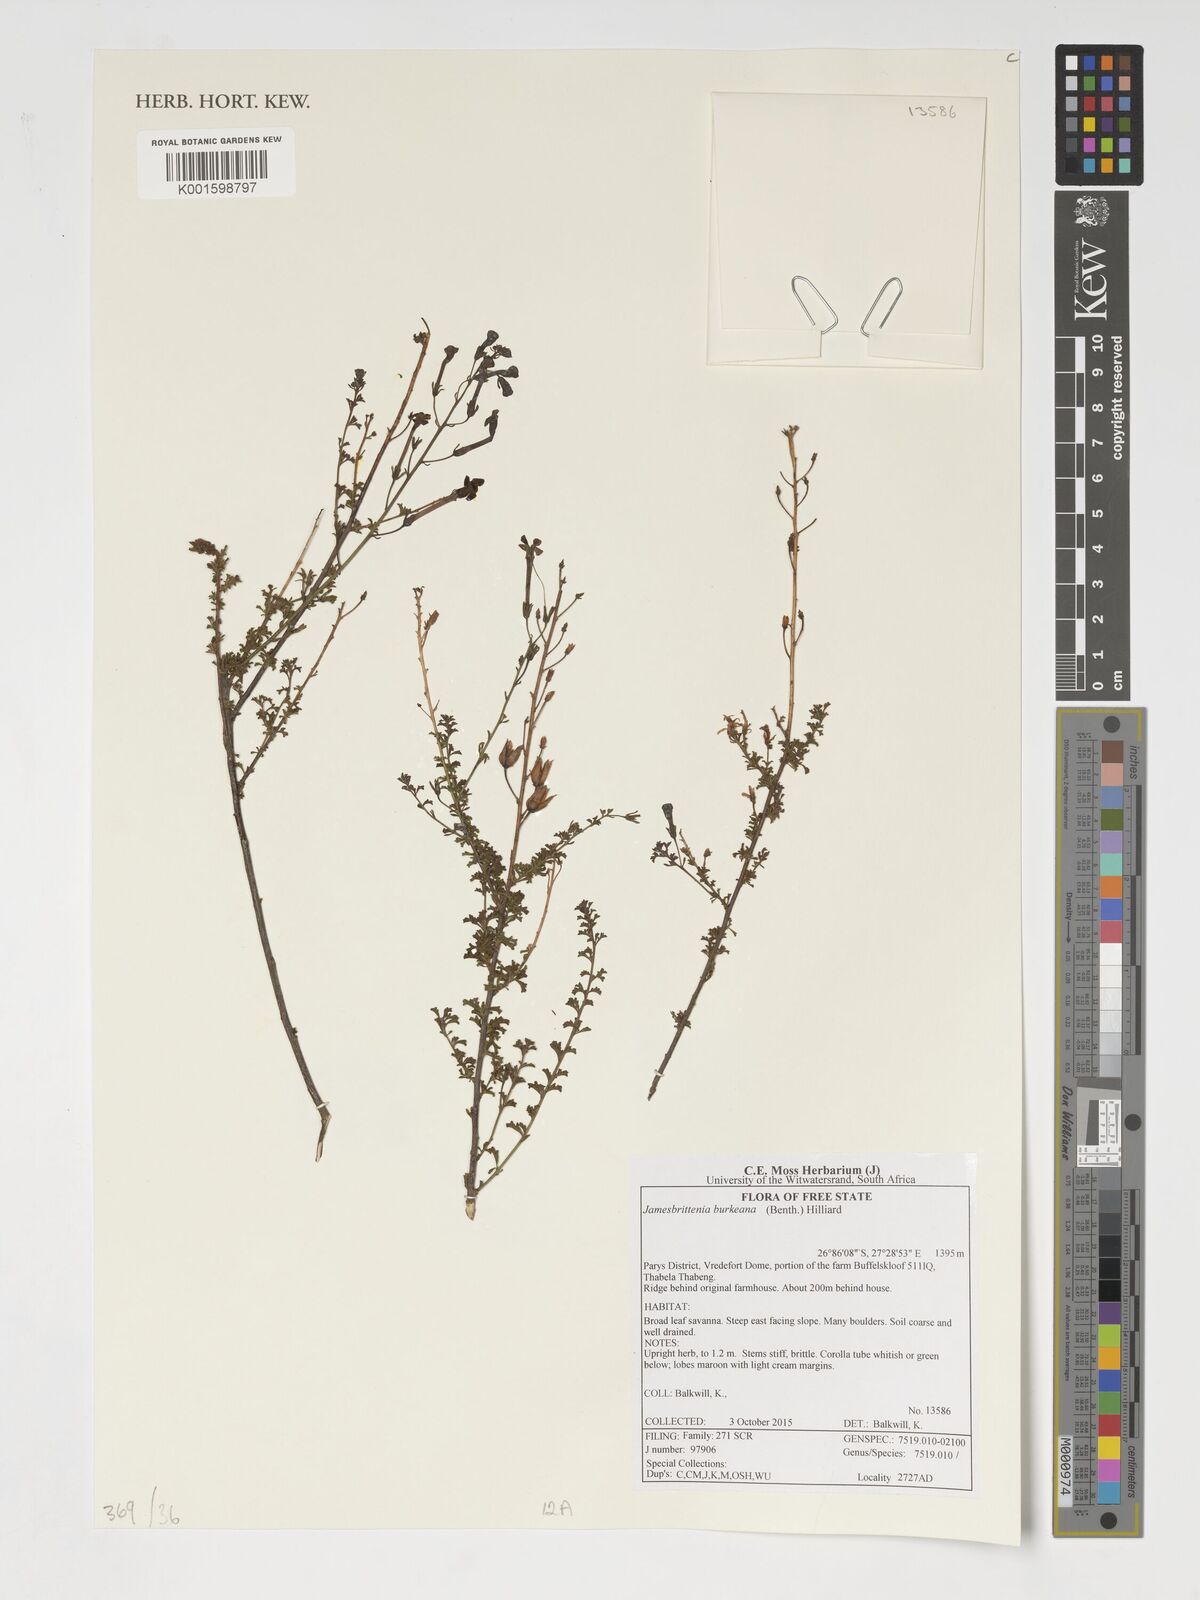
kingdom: Plantae
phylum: Tracheophyta
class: Magnoliopsida
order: Lamiales
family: Scrophulariaceae
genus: Jamesbrittenia
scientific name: Jamesbrittenia burkeana
